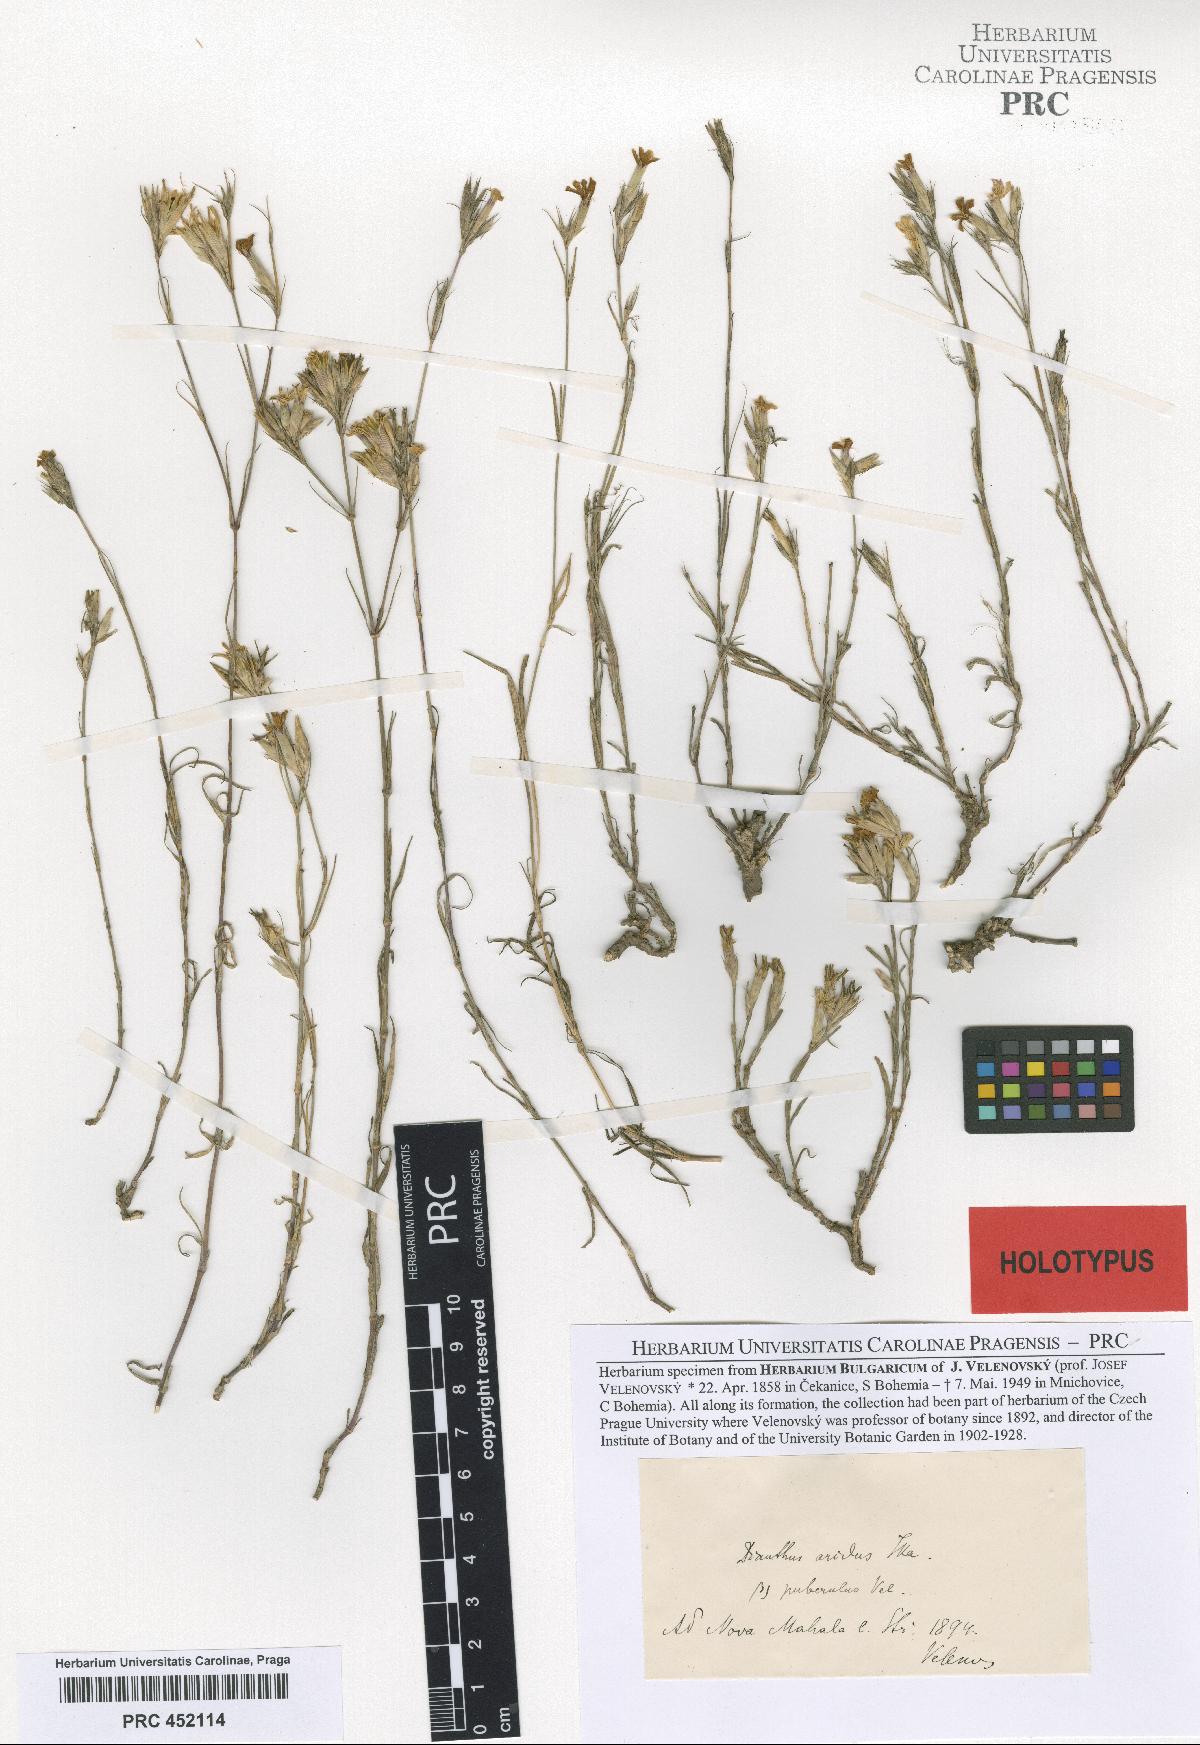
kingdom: Plantae
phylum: Tracheophyta
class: Magnoliopsida
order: Caryophyllales
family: Caryophyllaceae
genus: Dianthus
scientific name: Dianthus pallens
